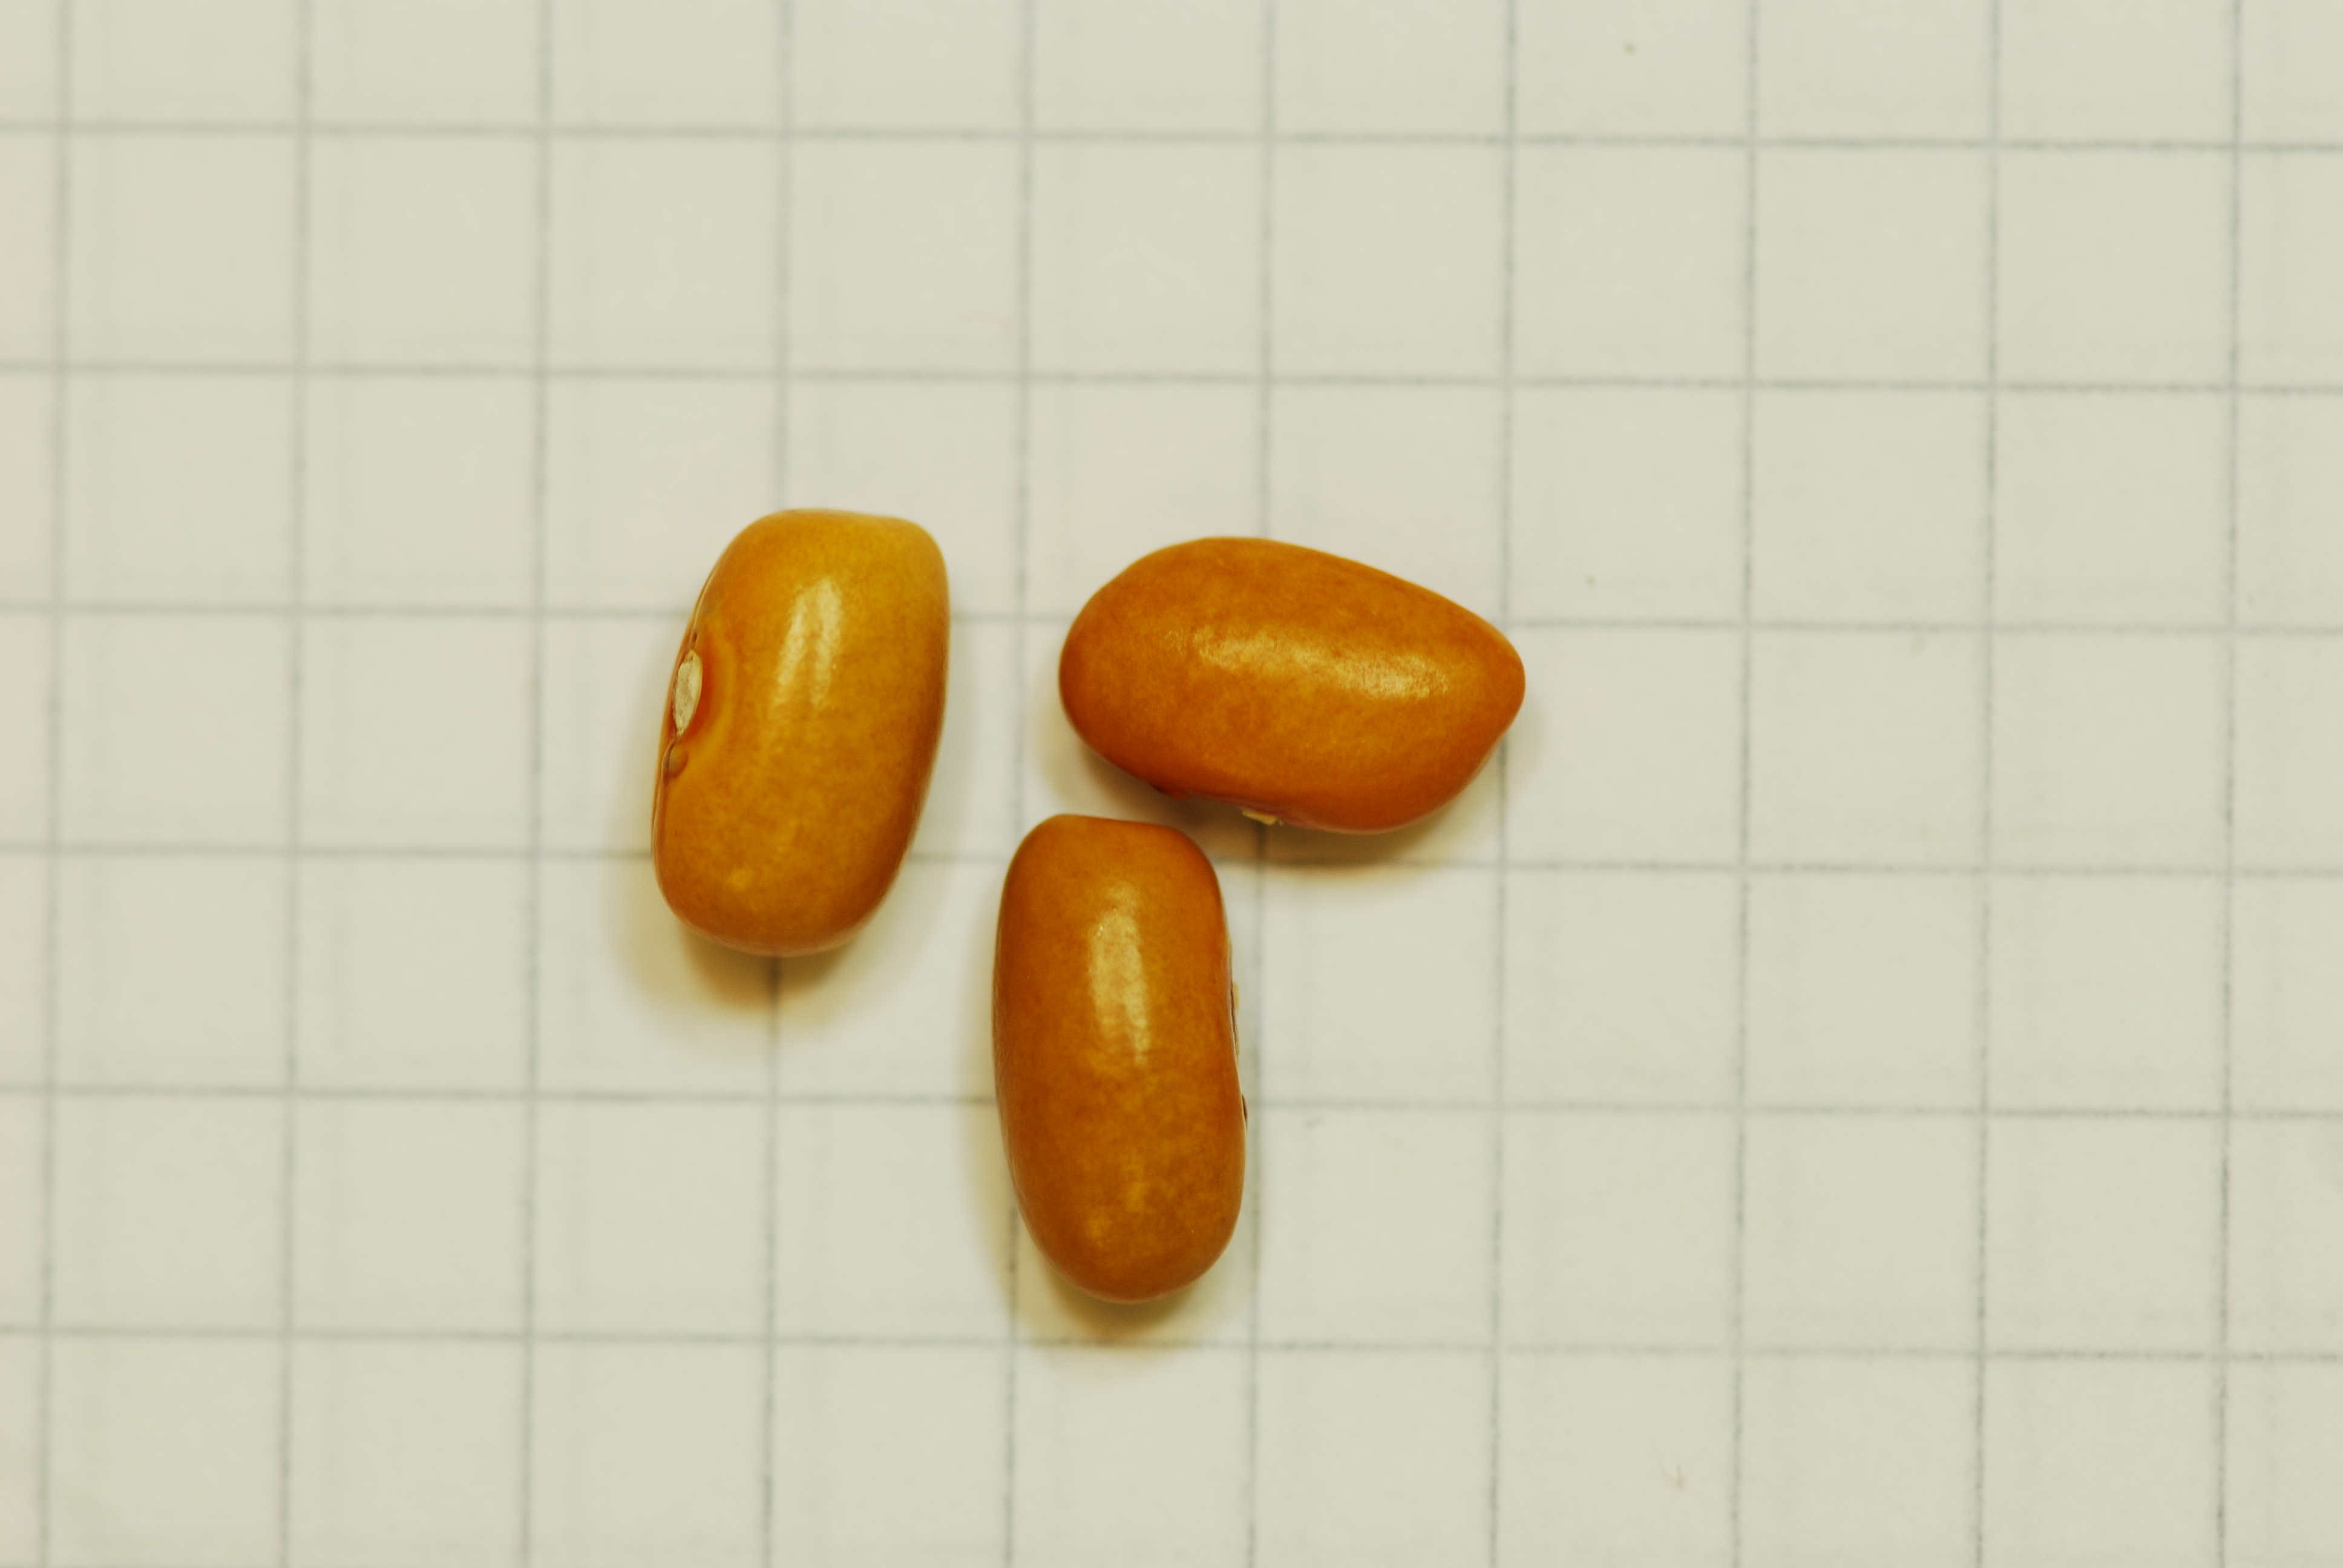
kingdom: Plantae
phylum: Tracheophyta
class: Magnoliopsida
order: Fabales
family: Fabaceae
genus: Phaseolus
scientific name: Phaseolus vulgaris
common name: Bean
